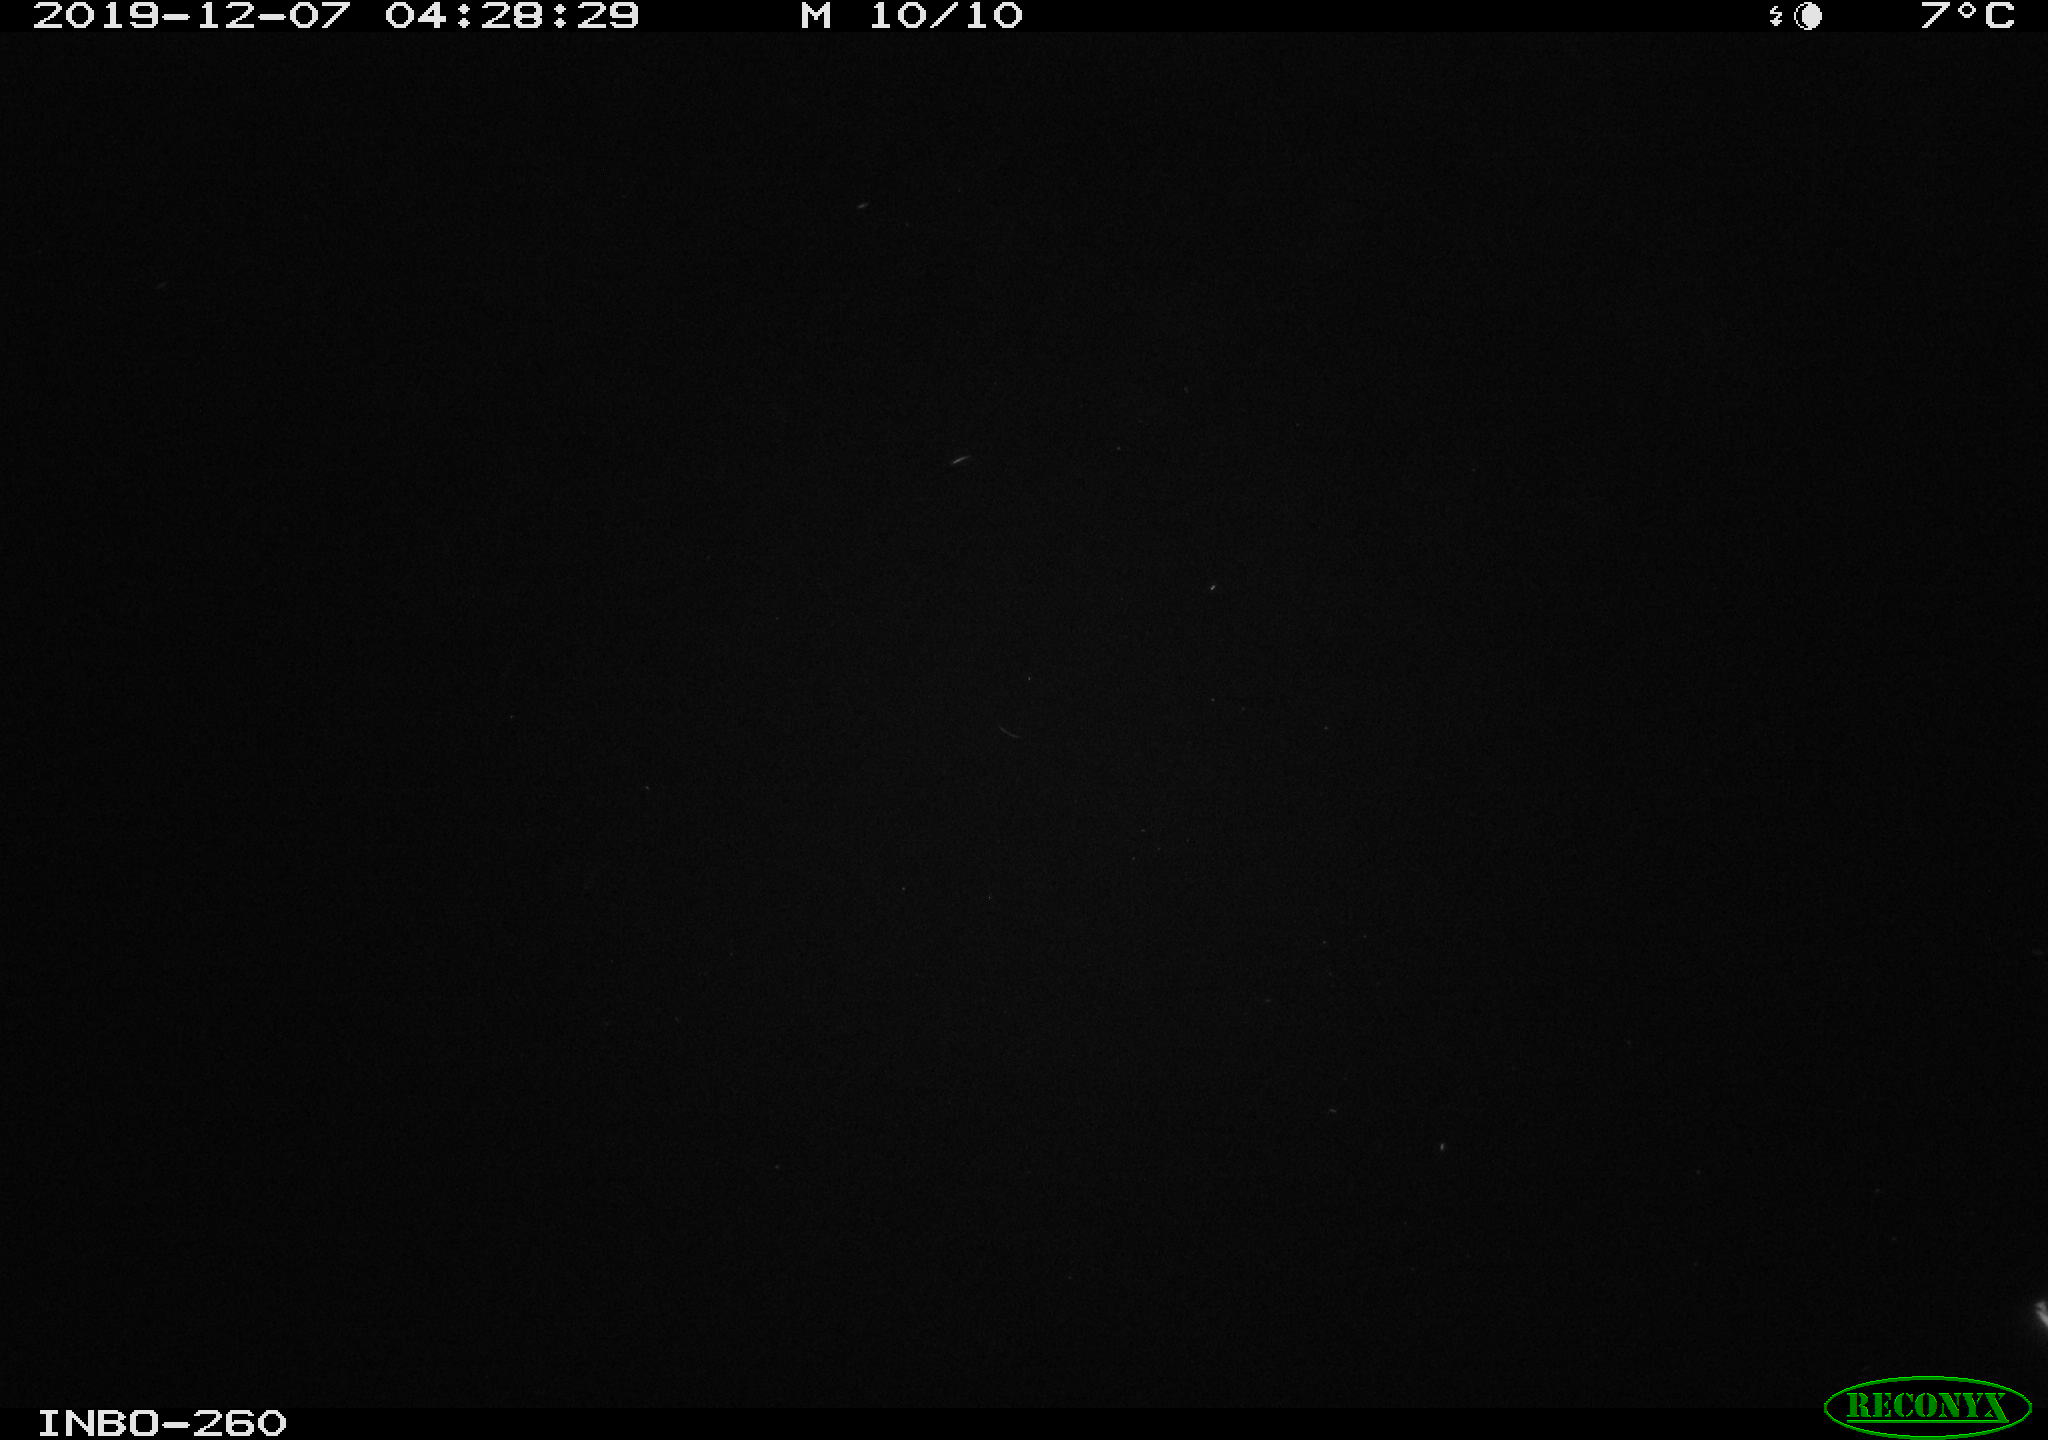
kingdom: Animalia
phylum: Chordata
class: Aves
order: Anseriformes
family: Anatidae
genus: Anas
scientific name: Anas platyrhynchos
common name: Mallard
